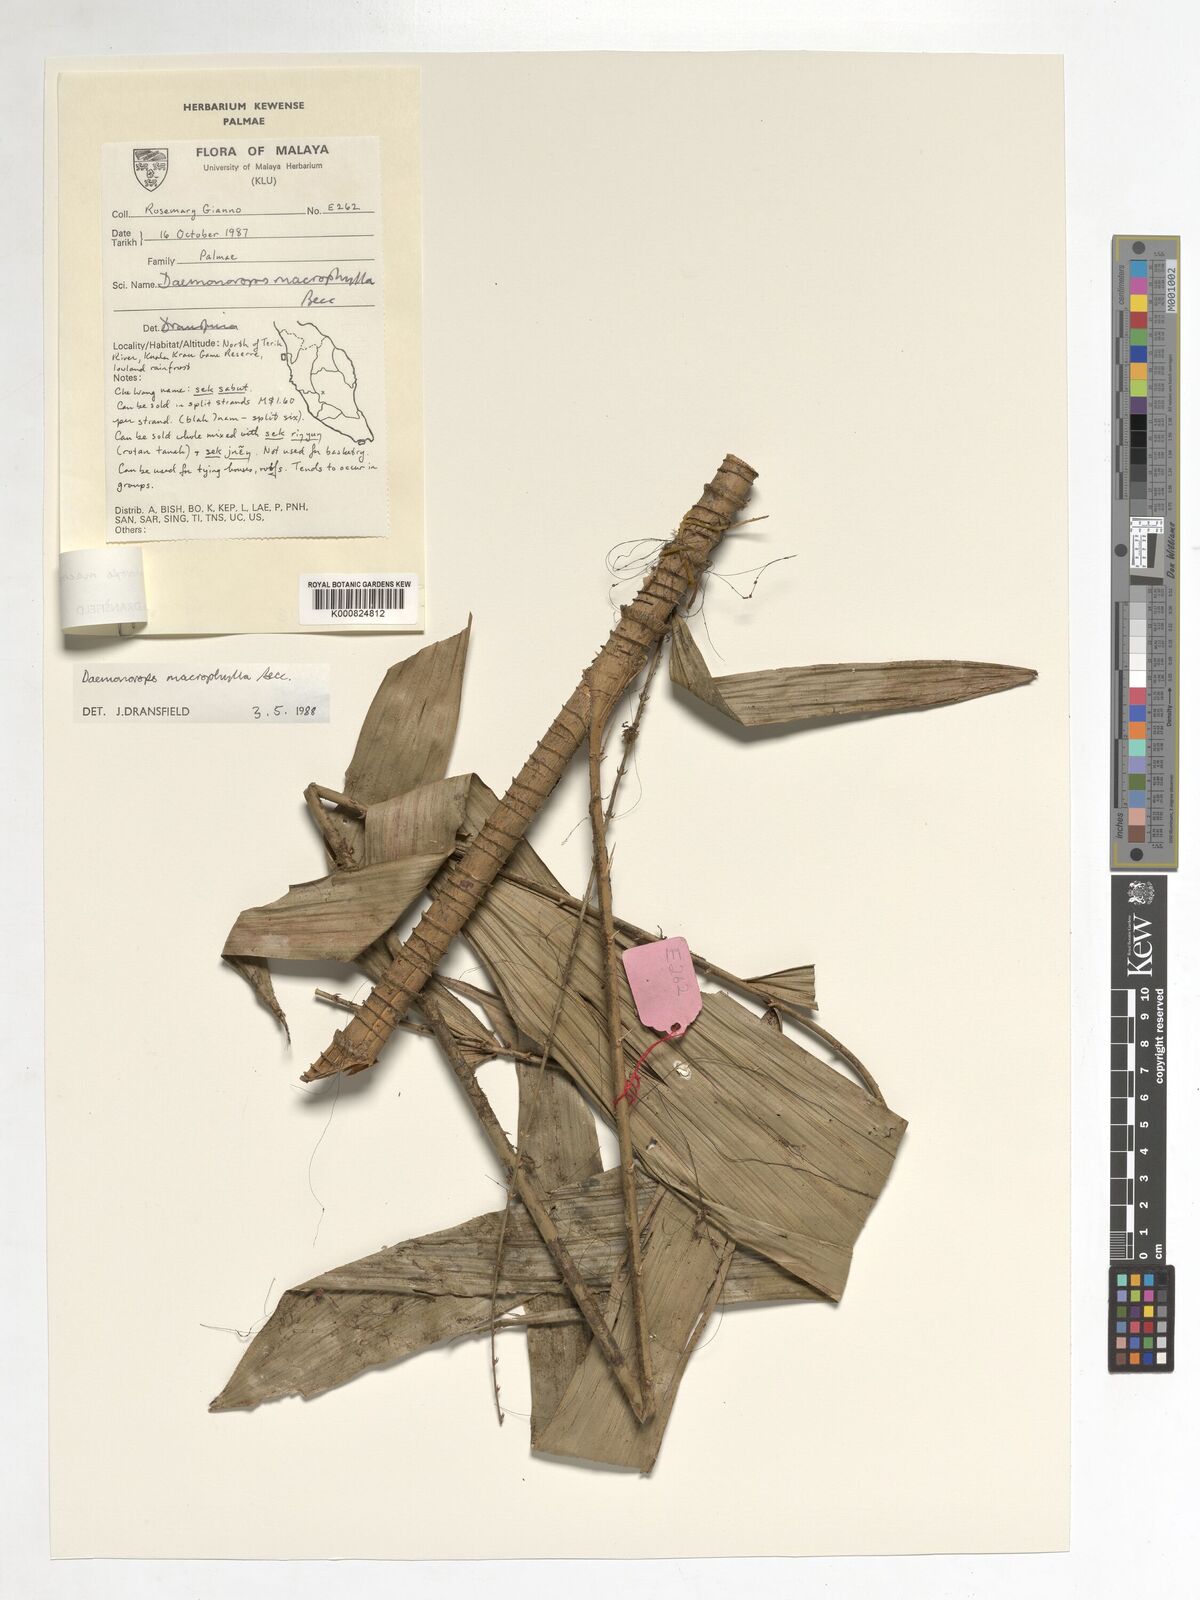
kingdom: Plantae
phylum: Tracheophyta
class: Liliopsida
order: Arecales
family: Arecaceae
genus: Calamus
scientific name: Calamus crinitus
